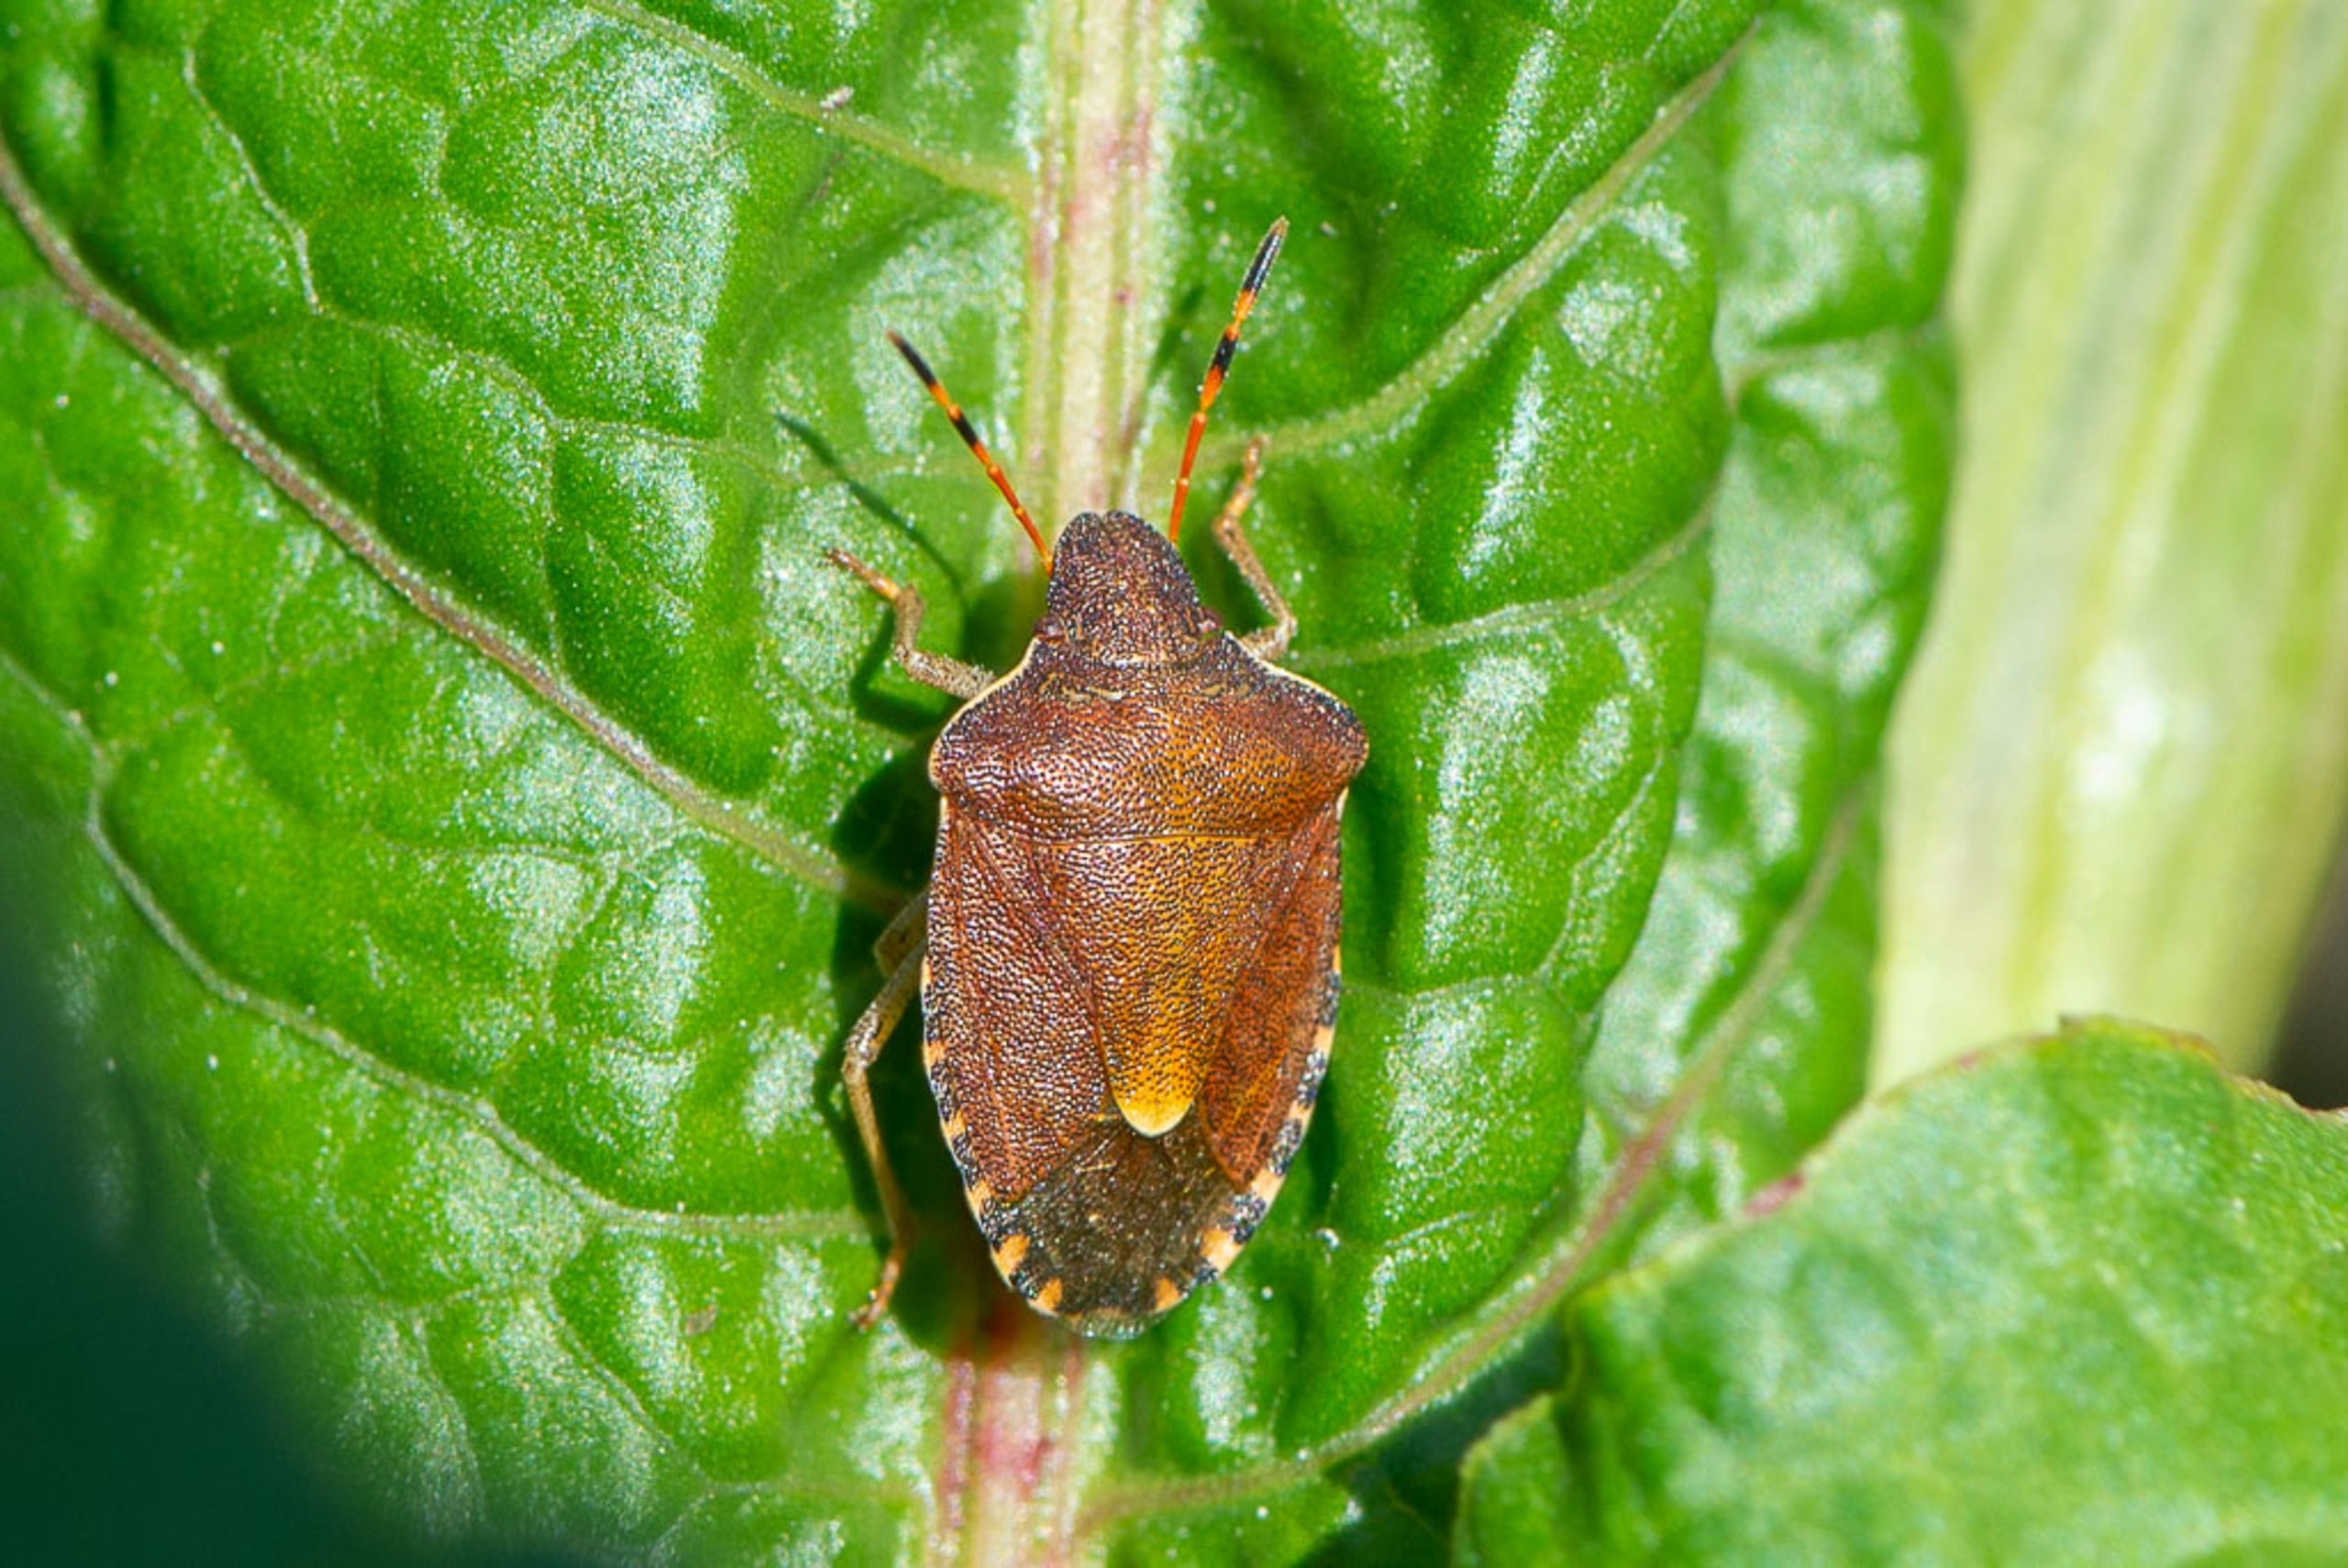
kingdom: Animalia
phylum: Arthropoda
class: Insecta
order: Hemiptera
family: Pentatomidae
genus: Holcostethus
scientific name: Holcostethus strictus
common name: Lille bærtæge
